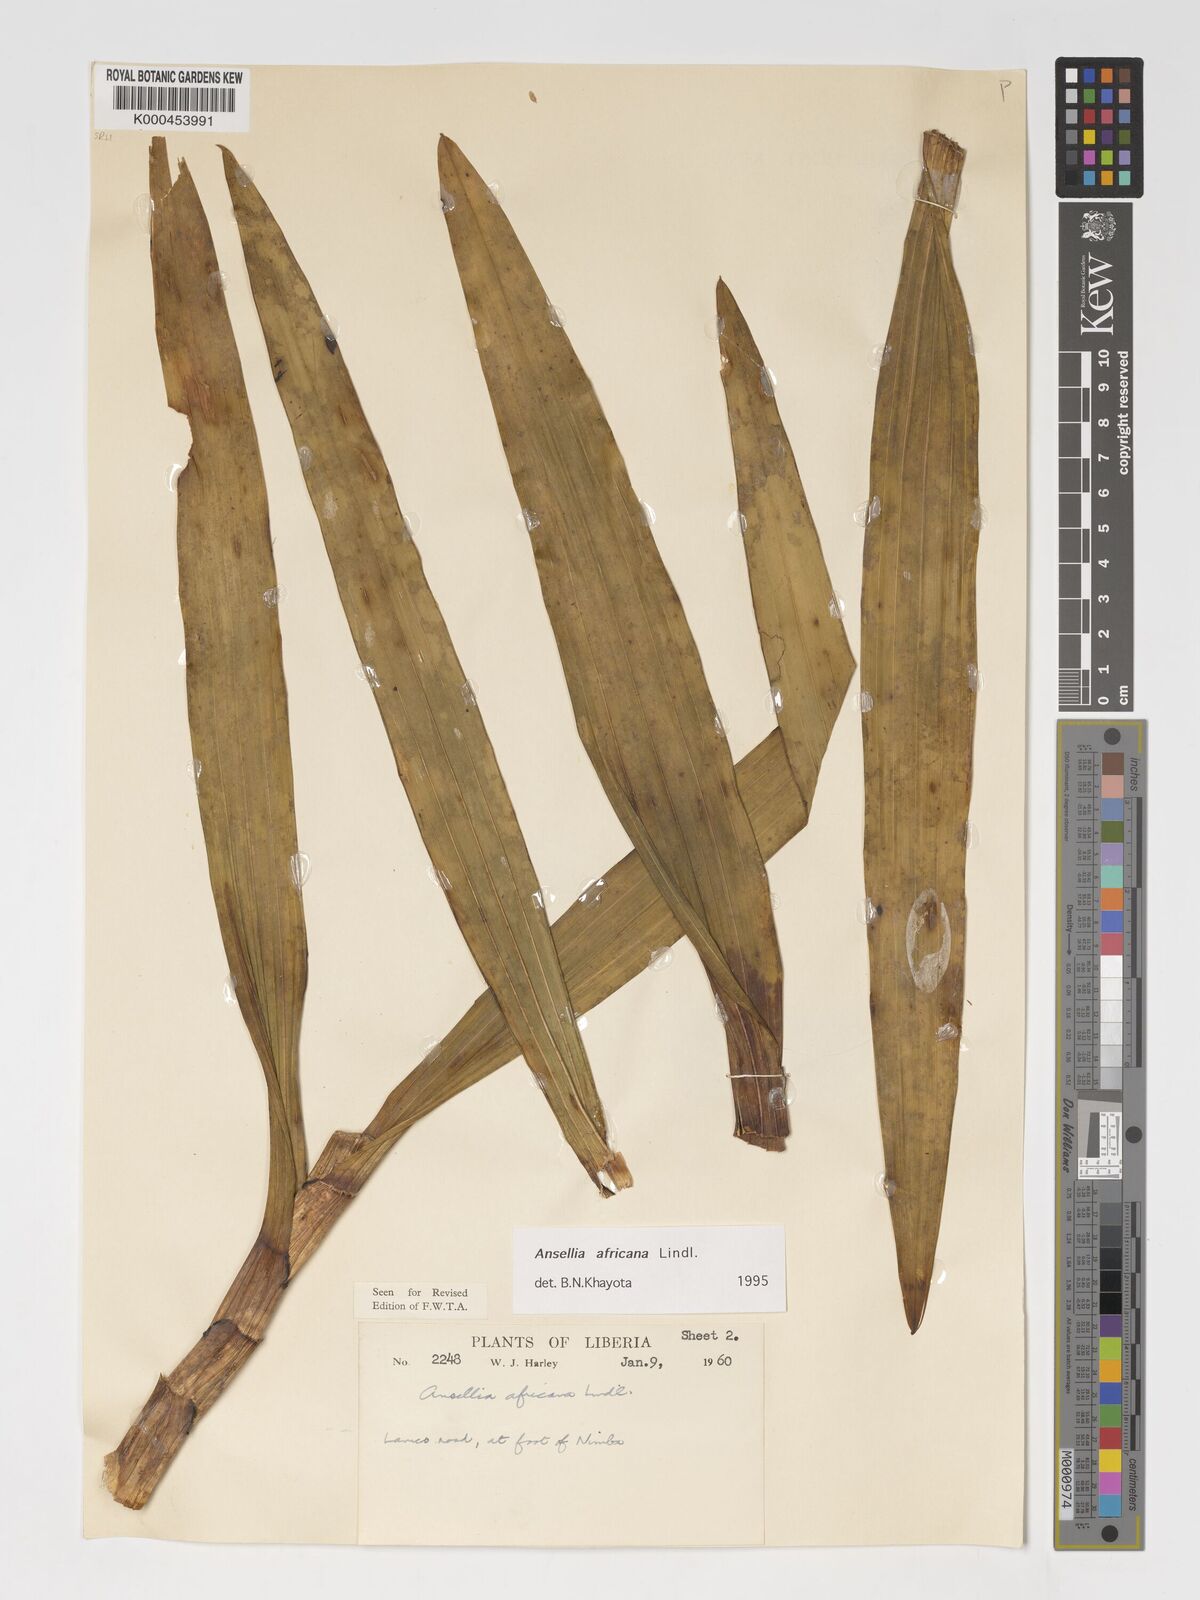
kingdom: Plantae
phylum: Tracheophyta
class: Liliopsida
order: Asparagales
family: Orchidaceae
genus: Ansellia
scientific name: Ansellia africana
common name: African ansellia
